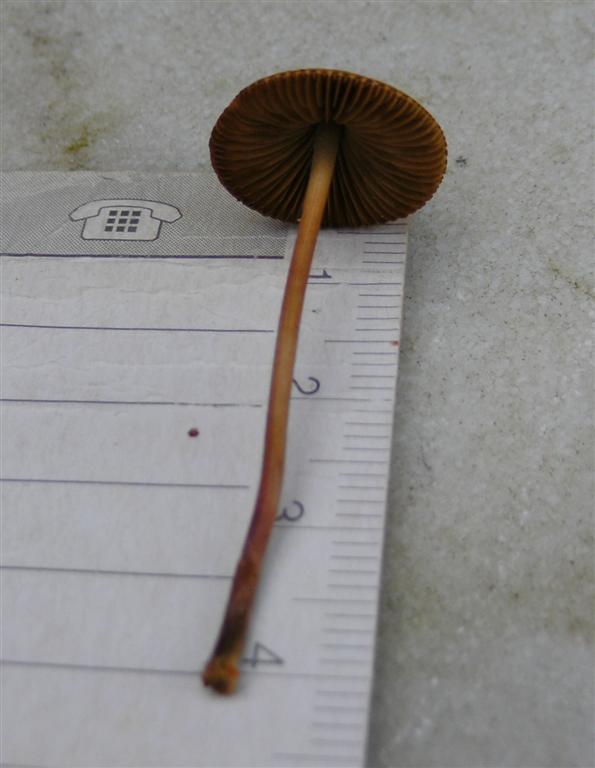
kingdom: Fungi
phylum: Basidiomycota
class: Agaricomycetes
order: Agaricales
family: Bolbitiaceae
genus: Conocybe
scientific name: Conocybe semiglobata
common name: halvkugleformet keglehat
